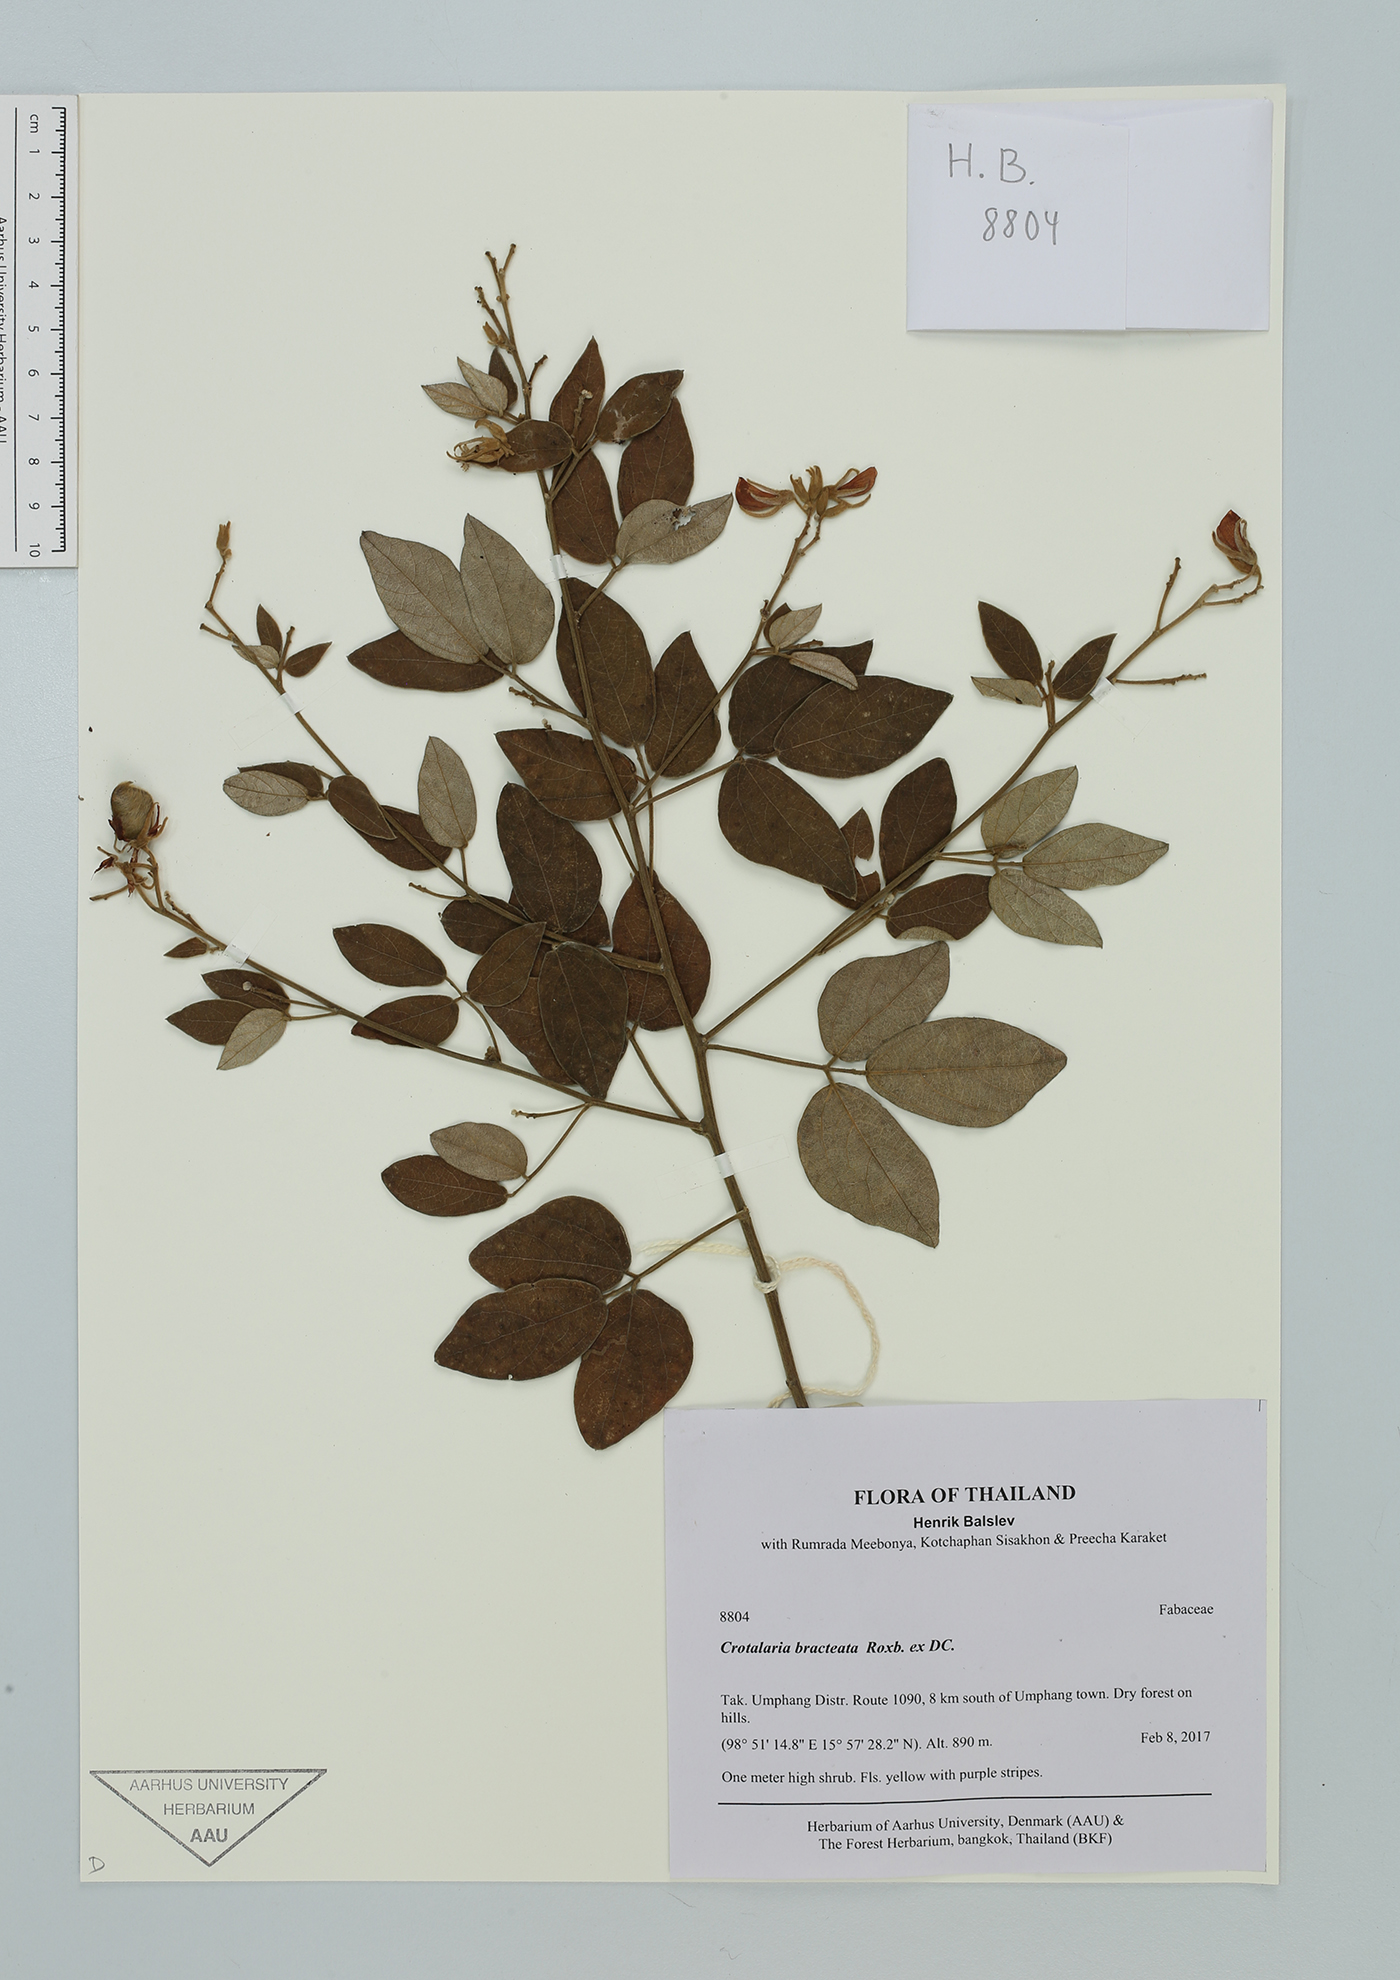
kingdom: Plantae
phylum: Tracheophyta
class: Magnoliopsida
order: Fabales
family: Fabaceae
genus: Crotalaria
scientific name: Crotalaria bracteata
